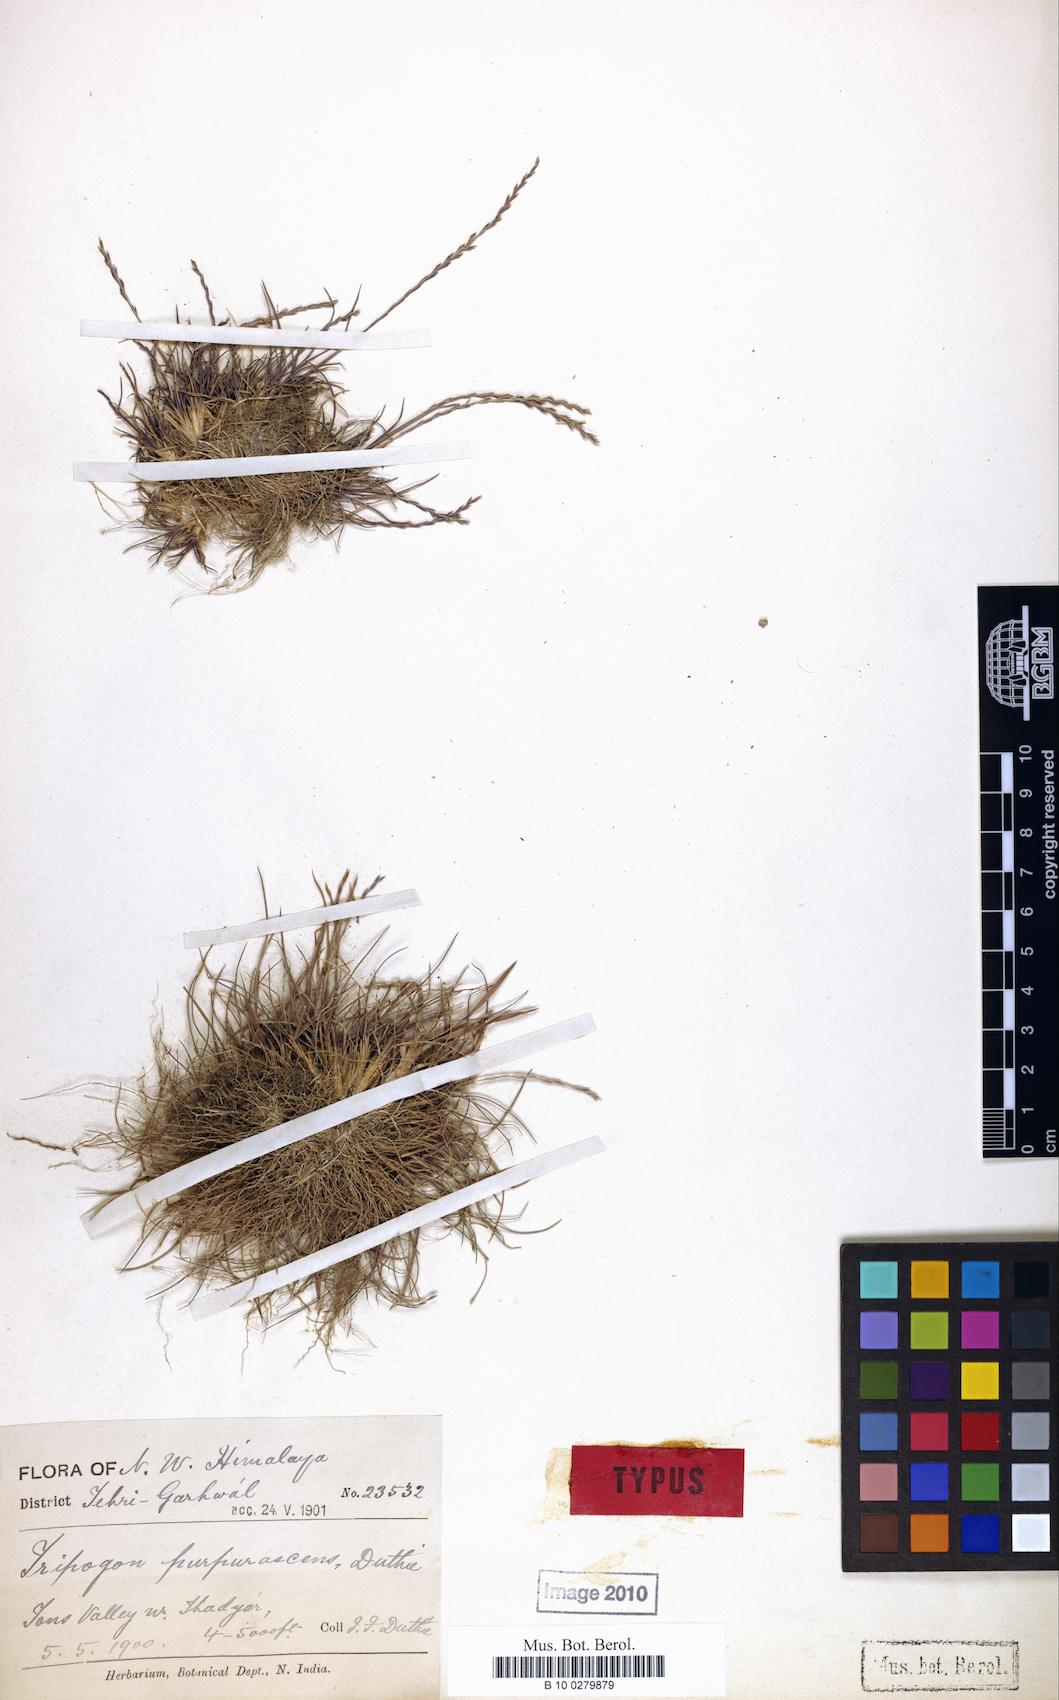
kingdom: Plantae
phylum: Tracheophyta
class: Liliopsida
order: Poales
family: Poaceae
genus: Tripogon
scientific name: Tripogon purpurascens
